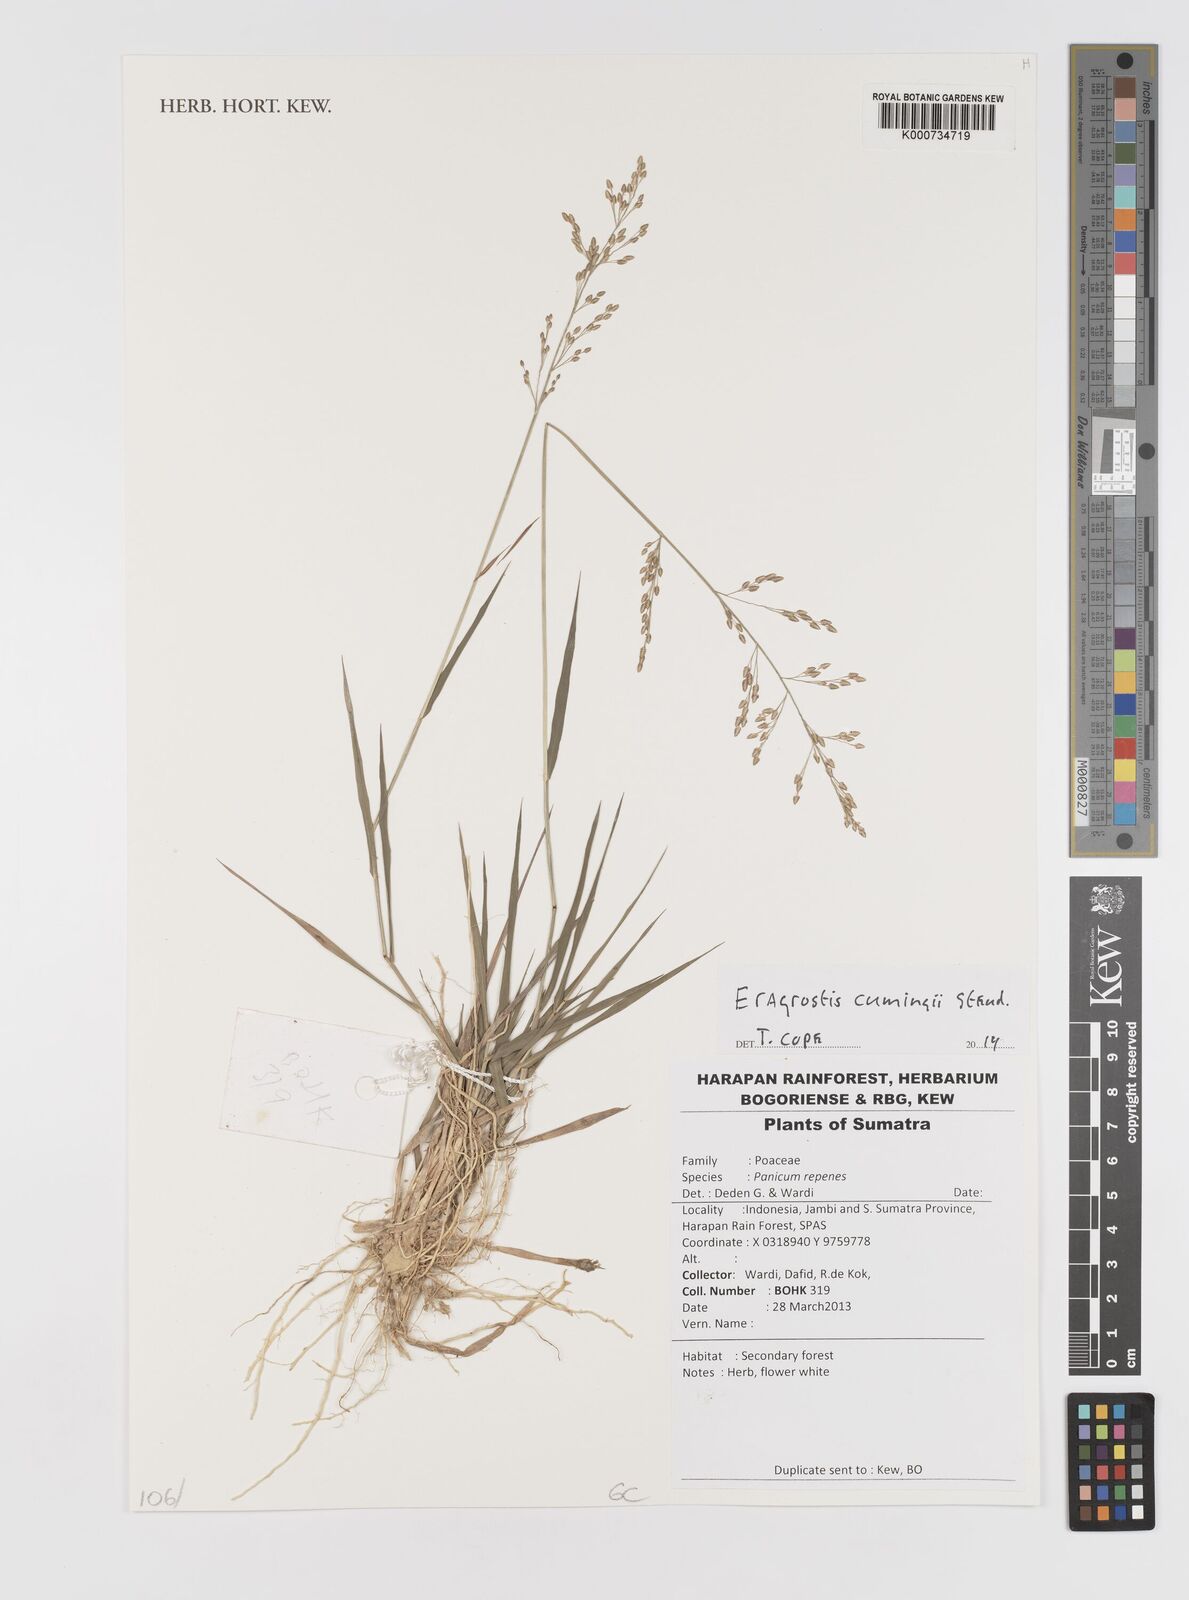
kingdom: Plantae
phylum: Tracheophyta
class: Liliopsida
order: Poales
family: Poaceae
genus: Eragrostis
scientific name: Eragrostis cumingii
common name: Cuming's lovegrass
